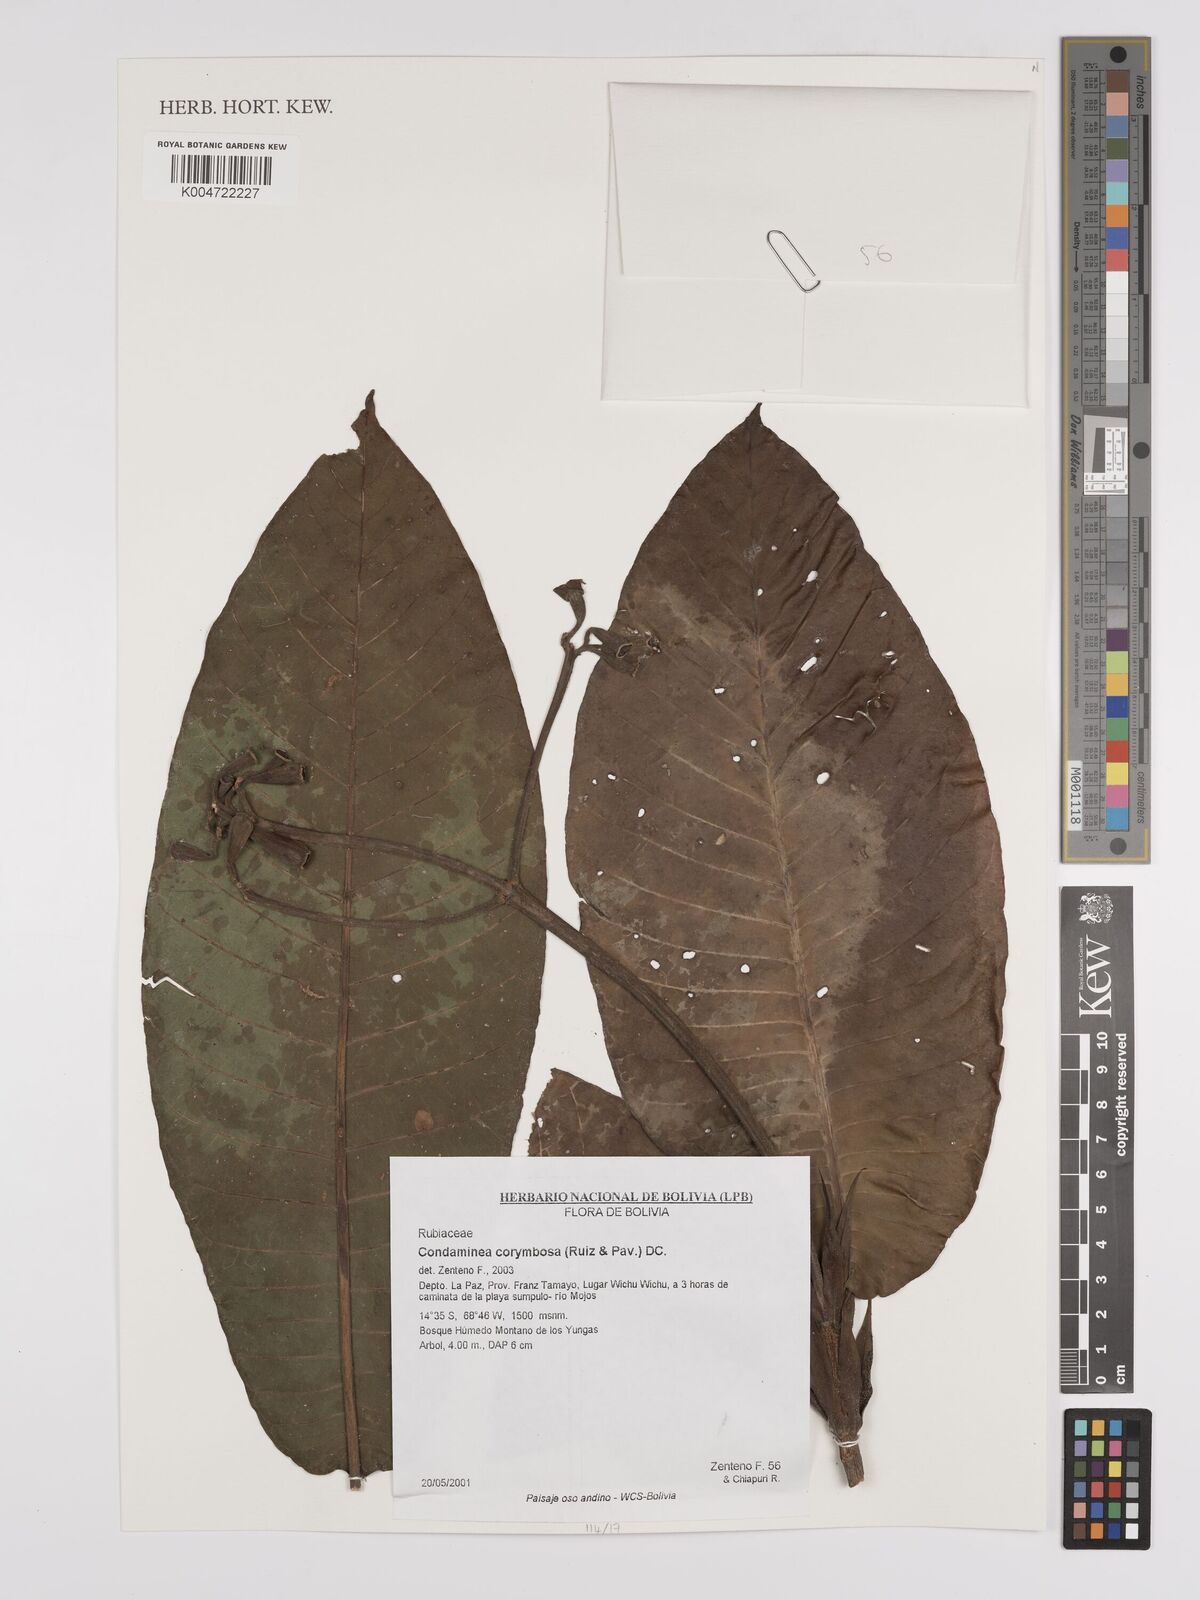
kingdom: Plantae
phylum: Tracheophyta
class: Magnoliopsida
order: Gentianales
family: Rubiaceae
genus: Condaminea
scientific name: Condaminea corymbosa
